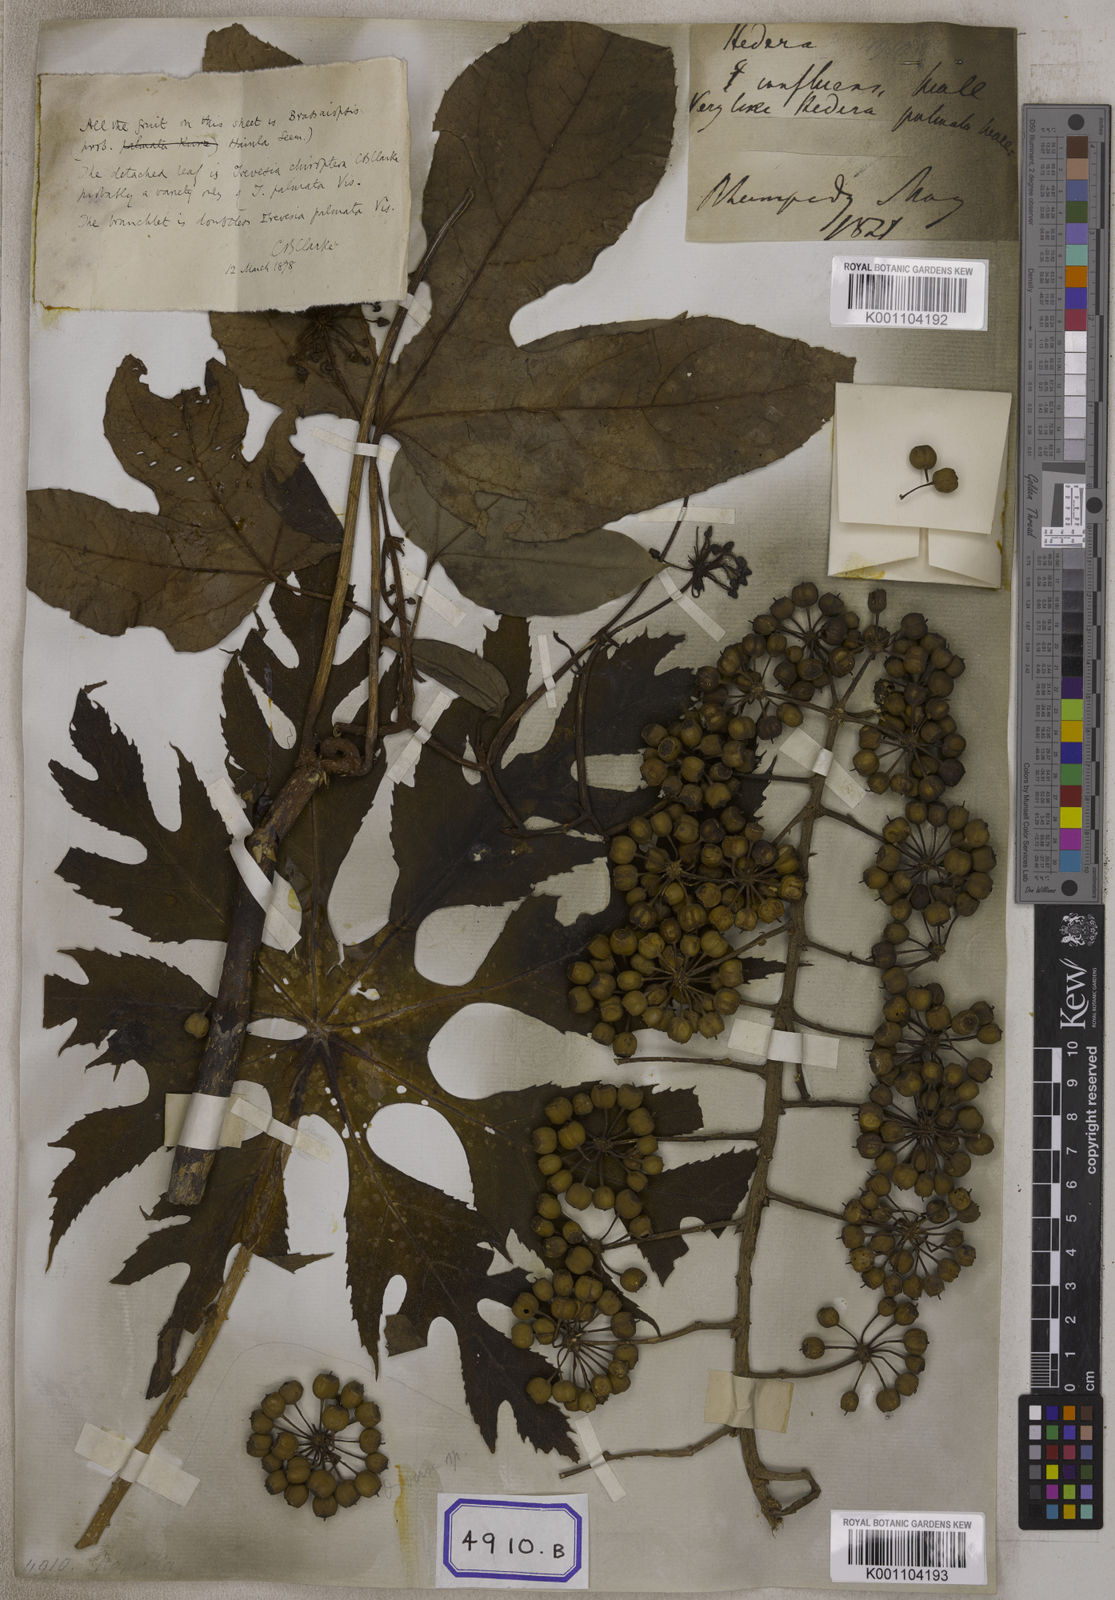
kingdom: Plantae
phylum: Tracheophyta
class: Magnoliopsida
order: Apiales
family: Araliaceae
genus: Hedera
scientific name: Hedera
